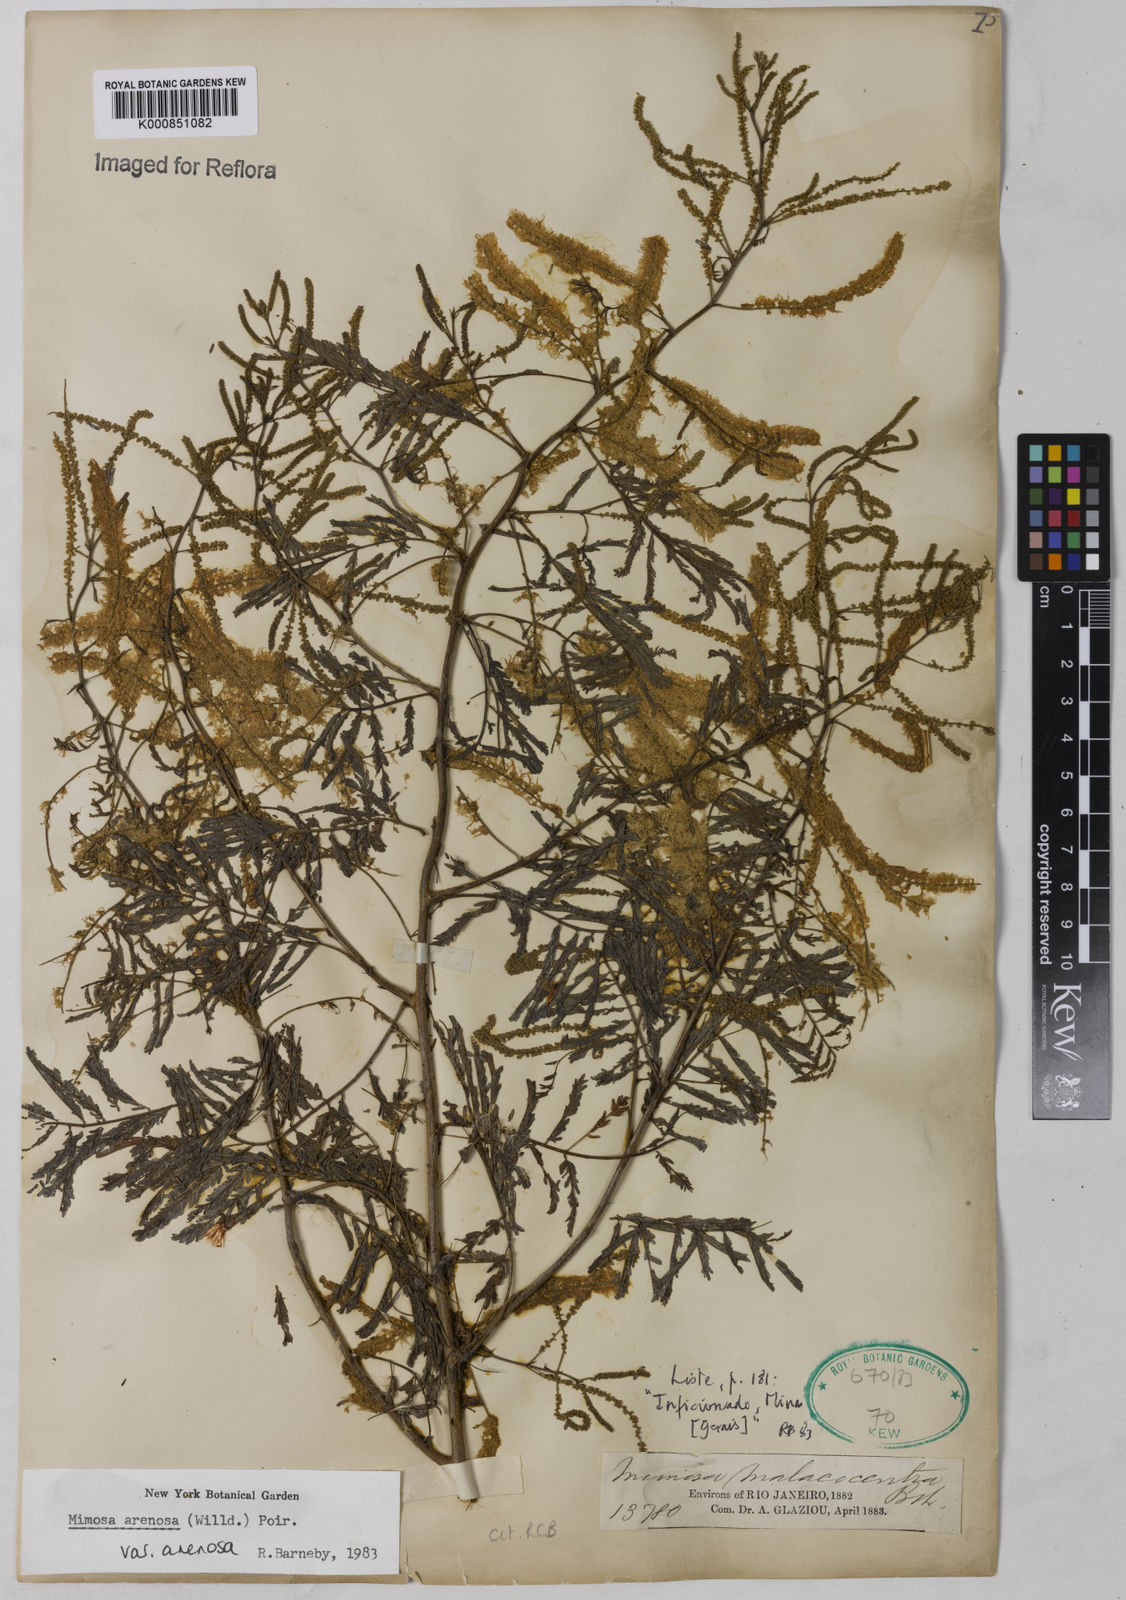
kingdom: Plantae
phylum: Tracheophyta
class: Magnoliopsida
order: Fabales
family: Fabaceae
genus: Mimosa
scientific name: Mimosa arenosa
